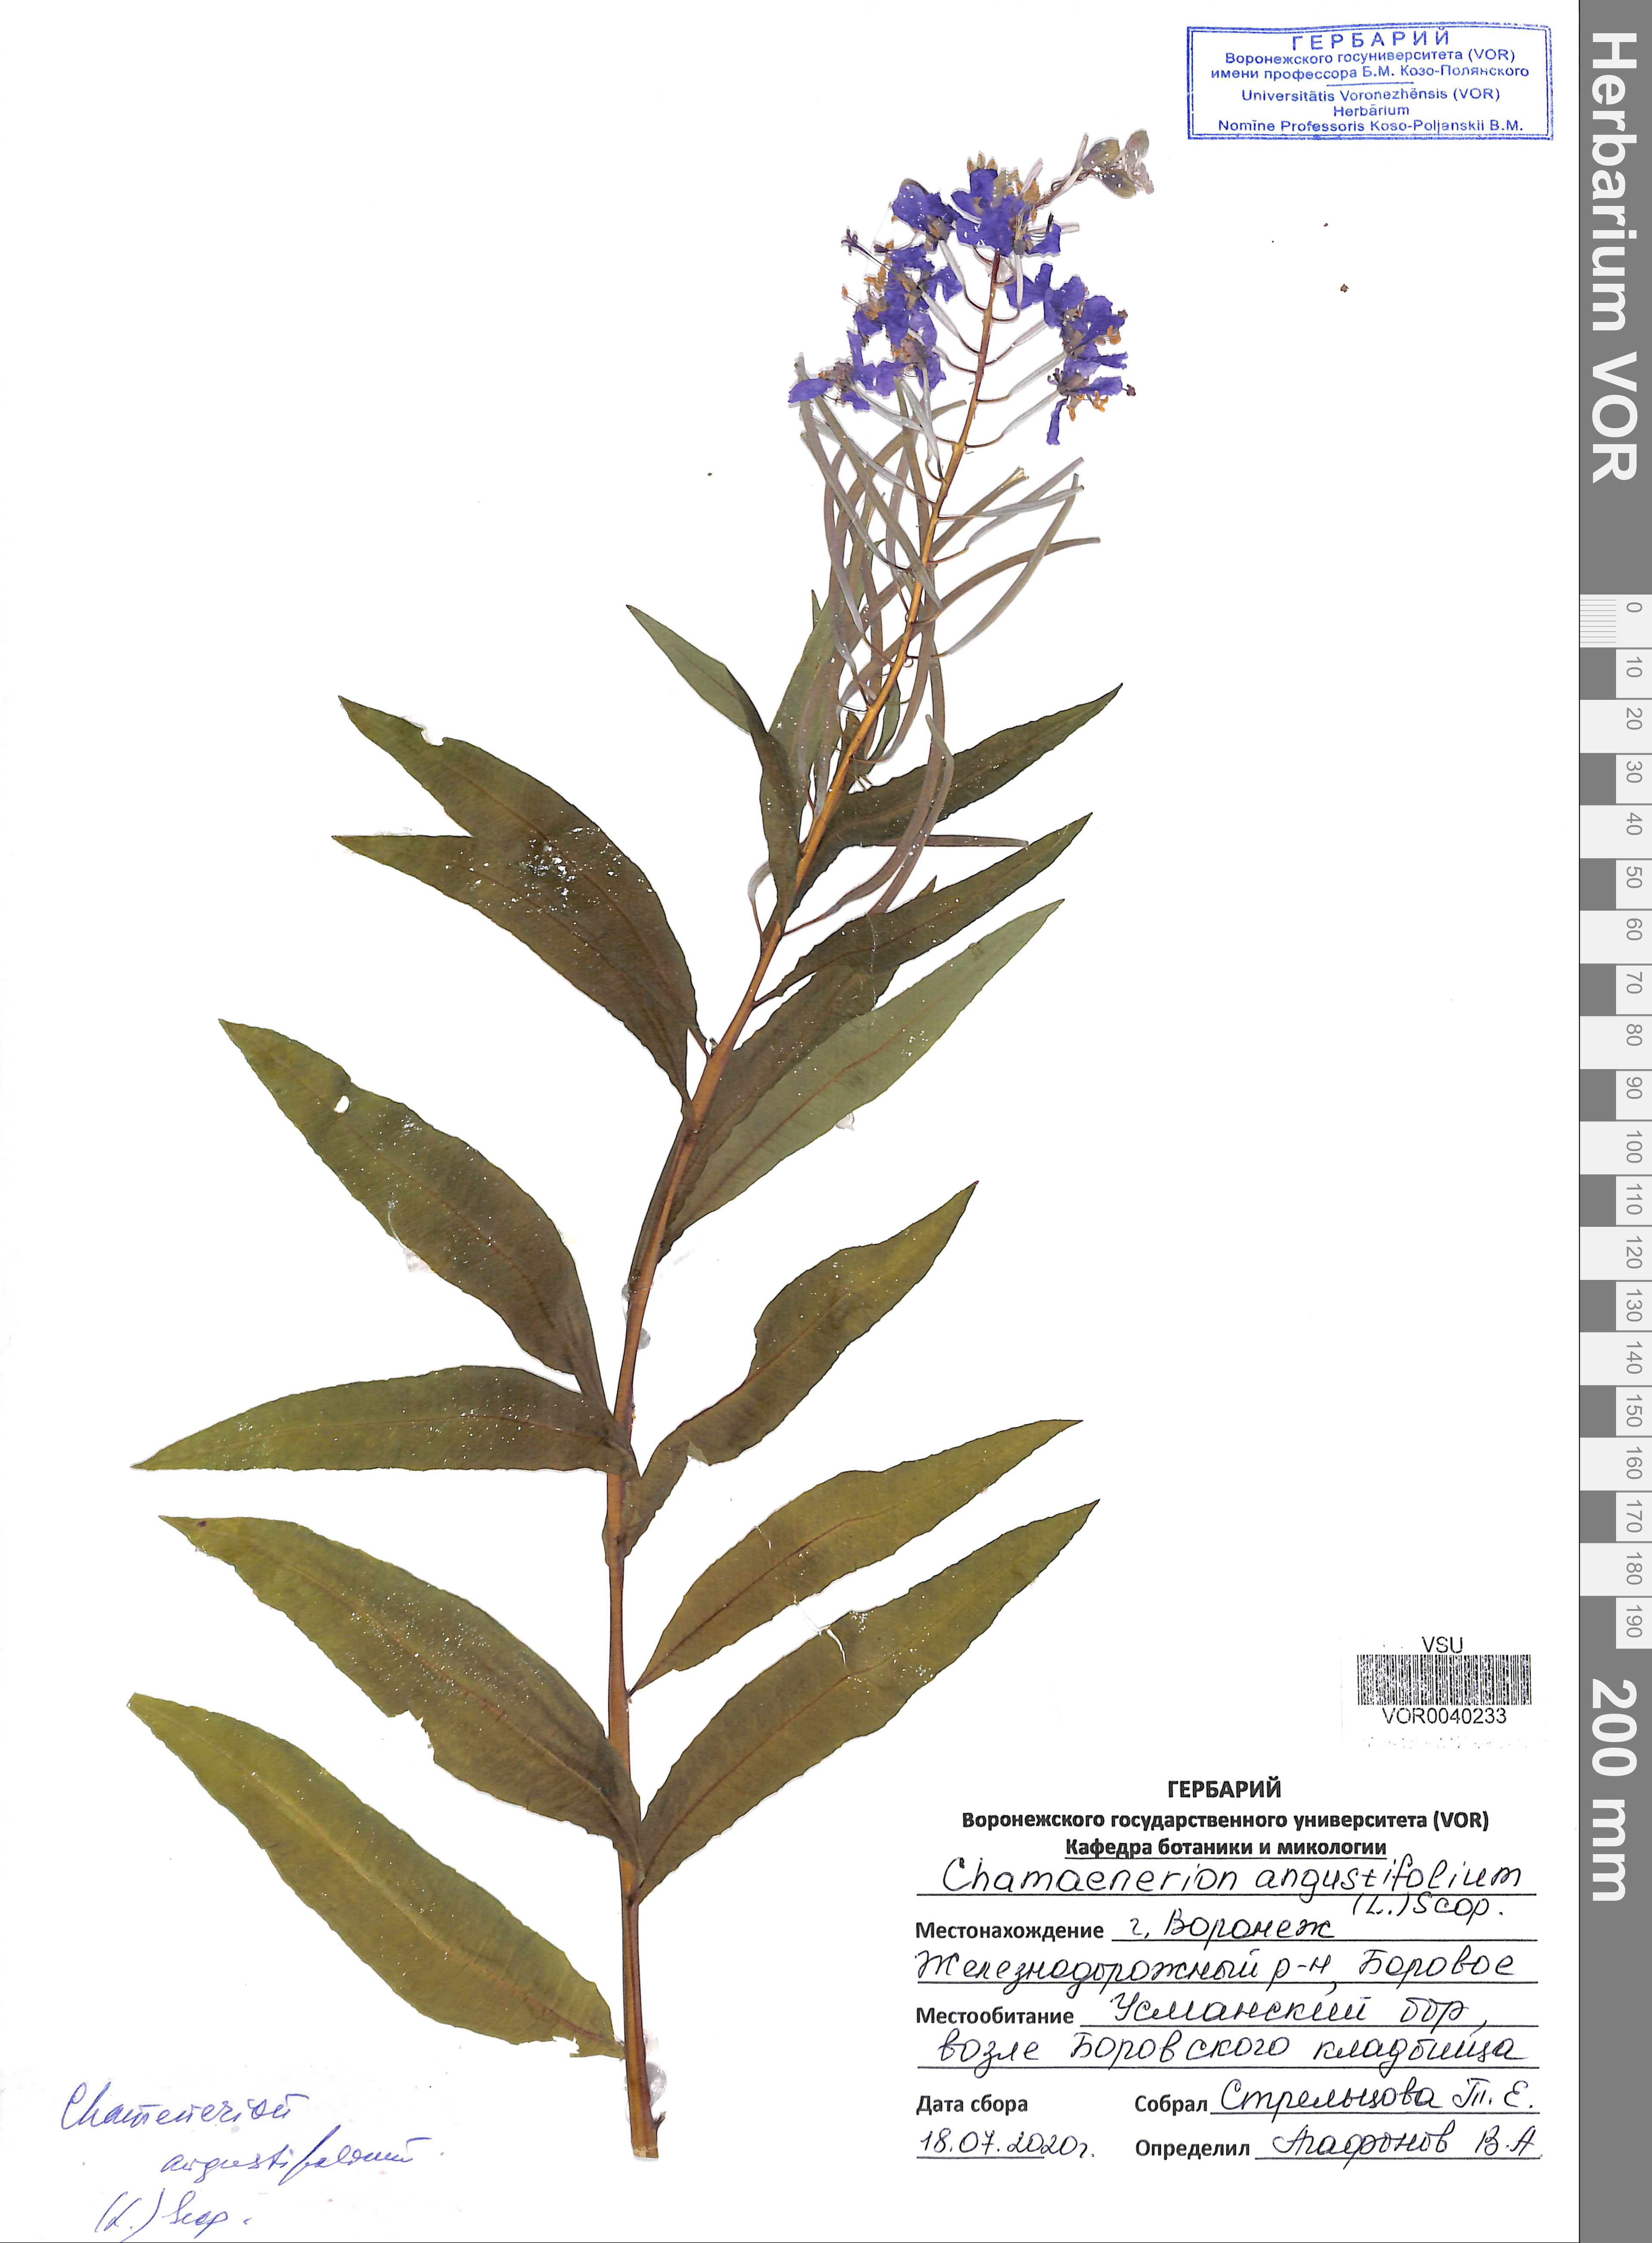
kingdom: Plantae
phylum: Tracheophyta
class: Magnoliopsida
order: Myrtales
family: Onagraceae
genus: Chamaenerion
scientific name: Chamaenerion angustifolium
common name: Fireweed
